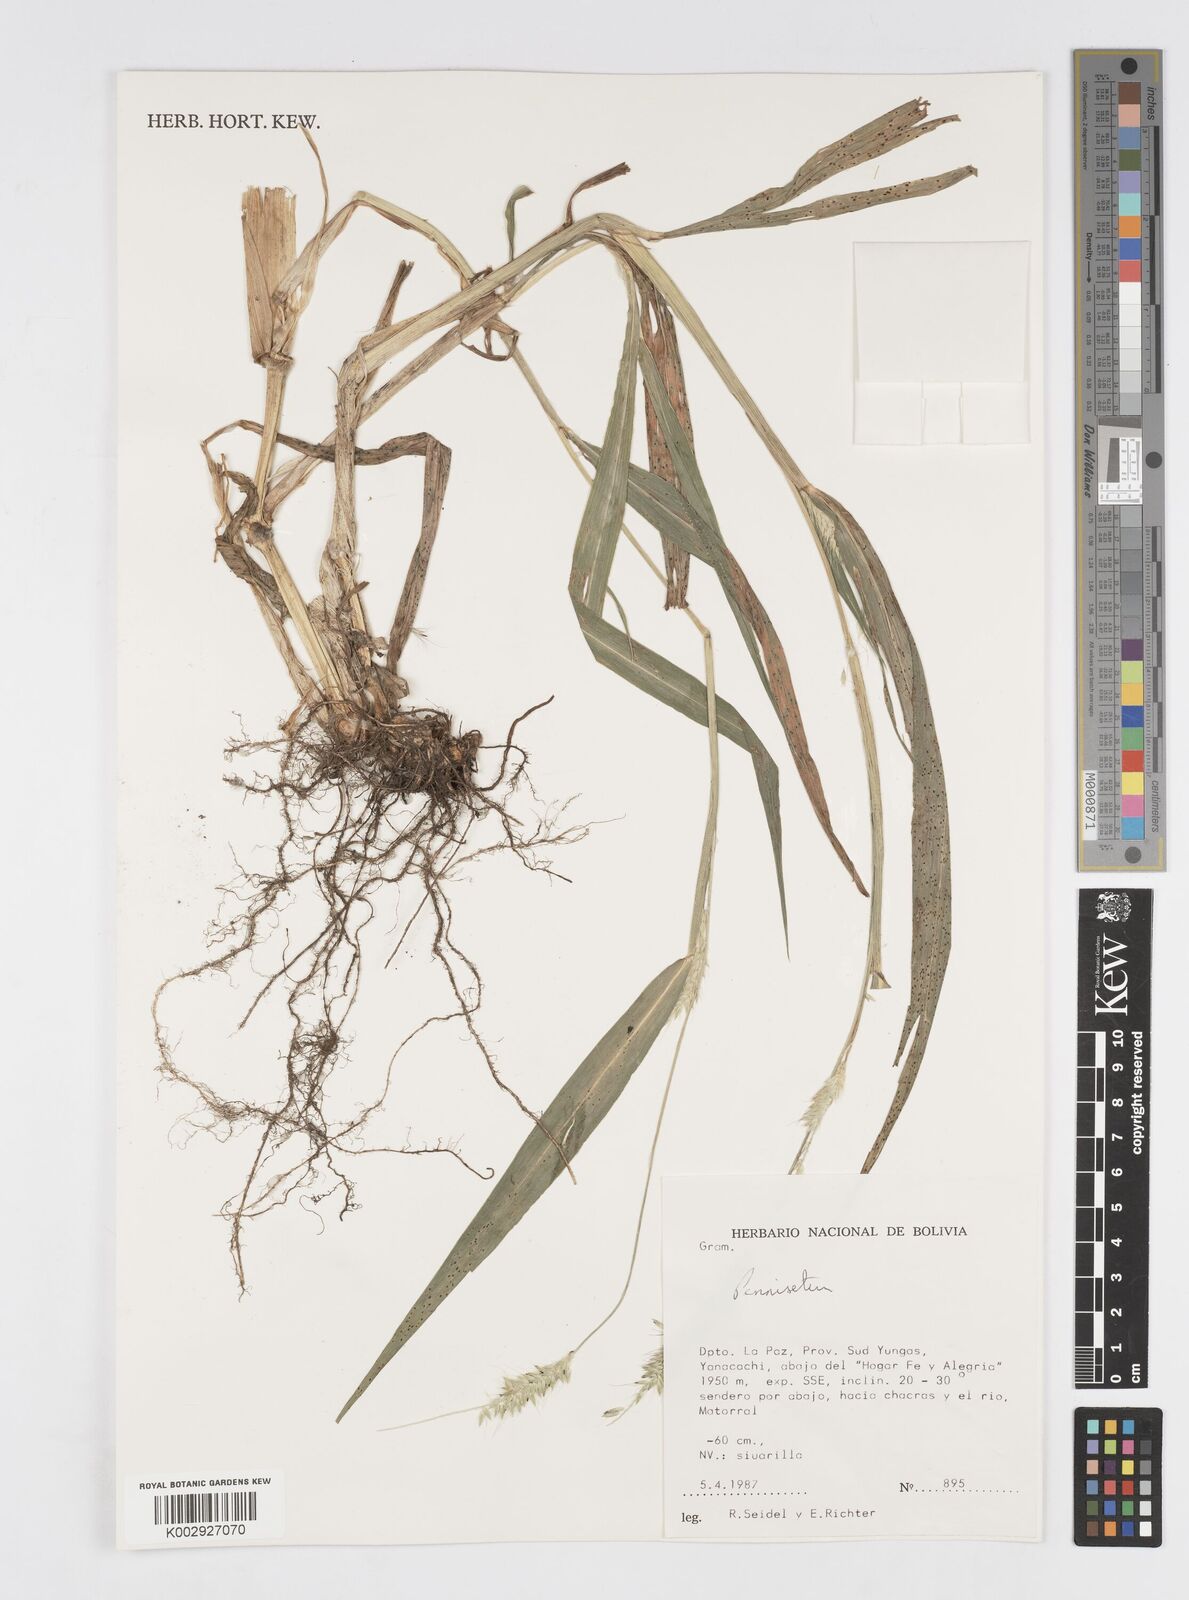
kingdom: Plantae
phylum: Tracheophyta
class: Liliopsida
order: Poales
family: Poaceae
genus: Cenchrus
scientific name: Cenchrus weberbaueri
